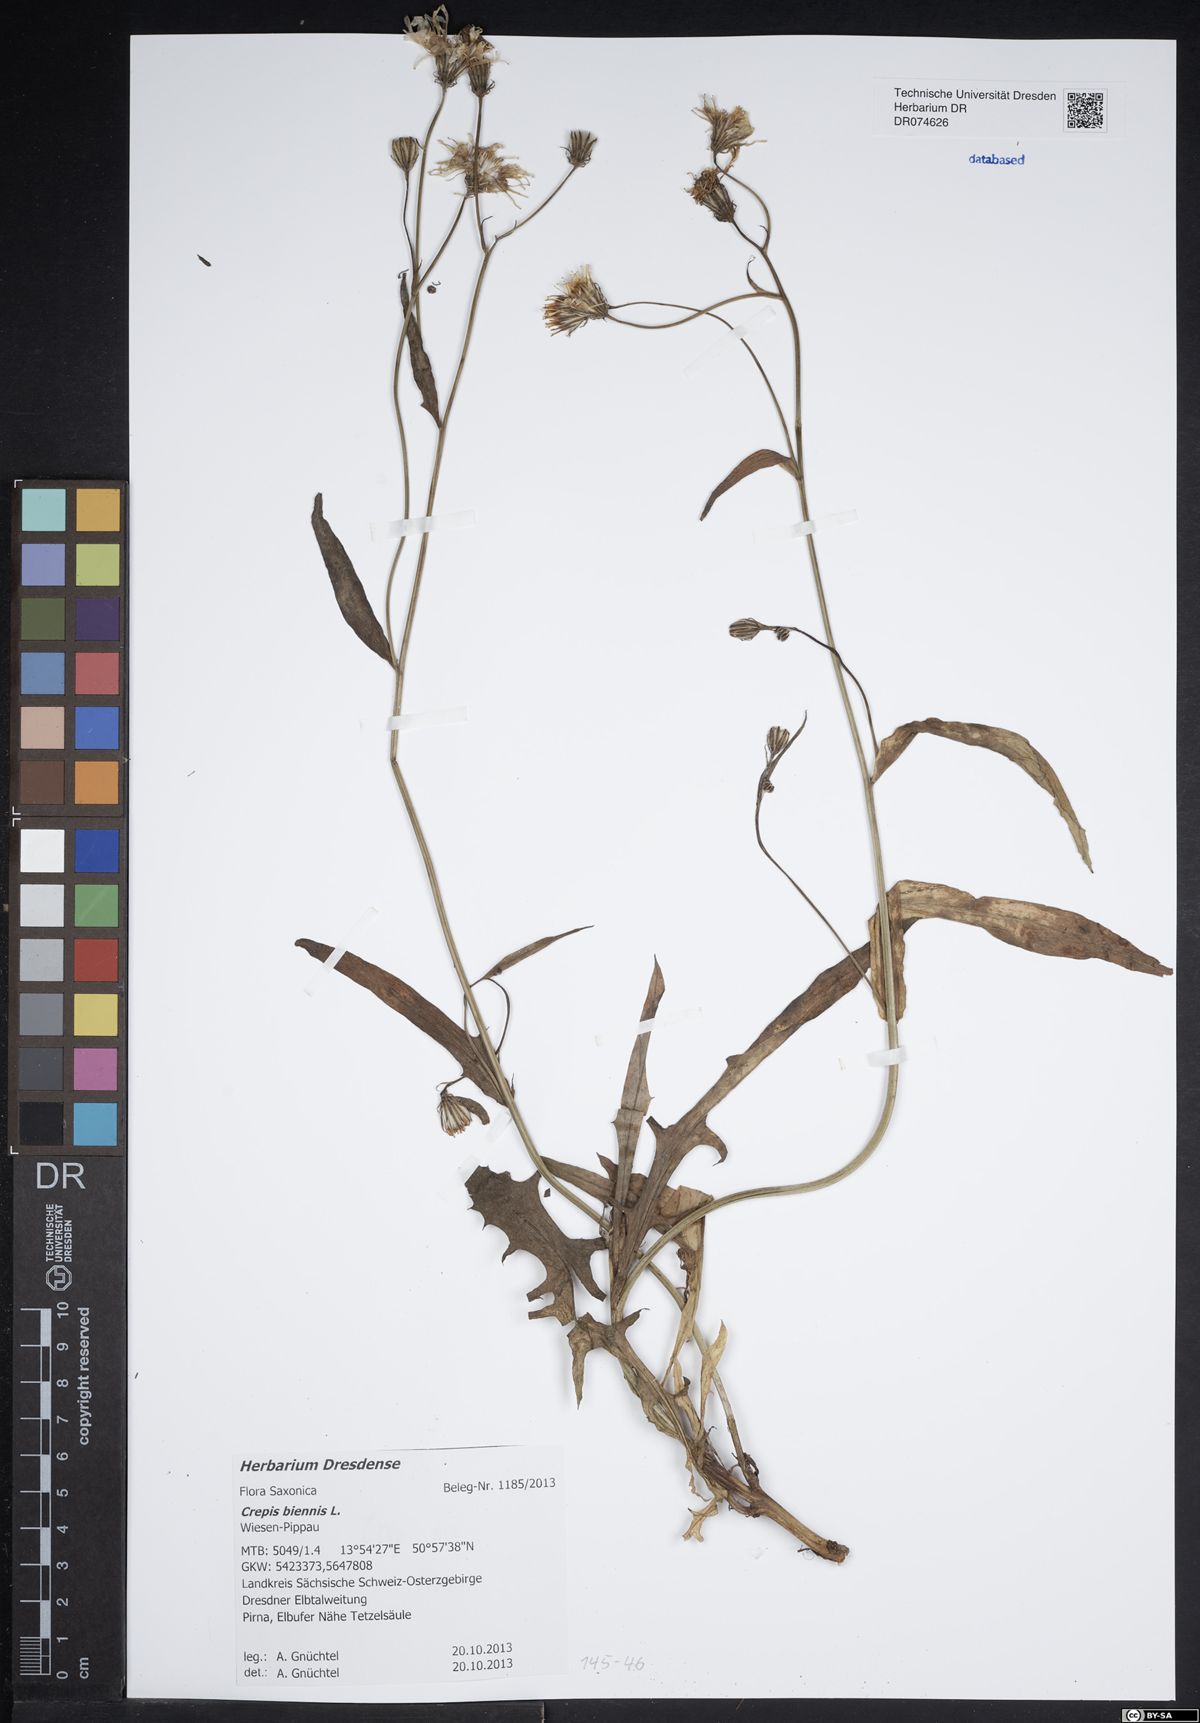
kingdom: Plantae
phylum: Tracheophyta
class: Magnoliopsida
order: Asterales
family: Asteraceae
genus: Crepis
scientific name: Crepis biennis
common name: Rough hawk's-beard
